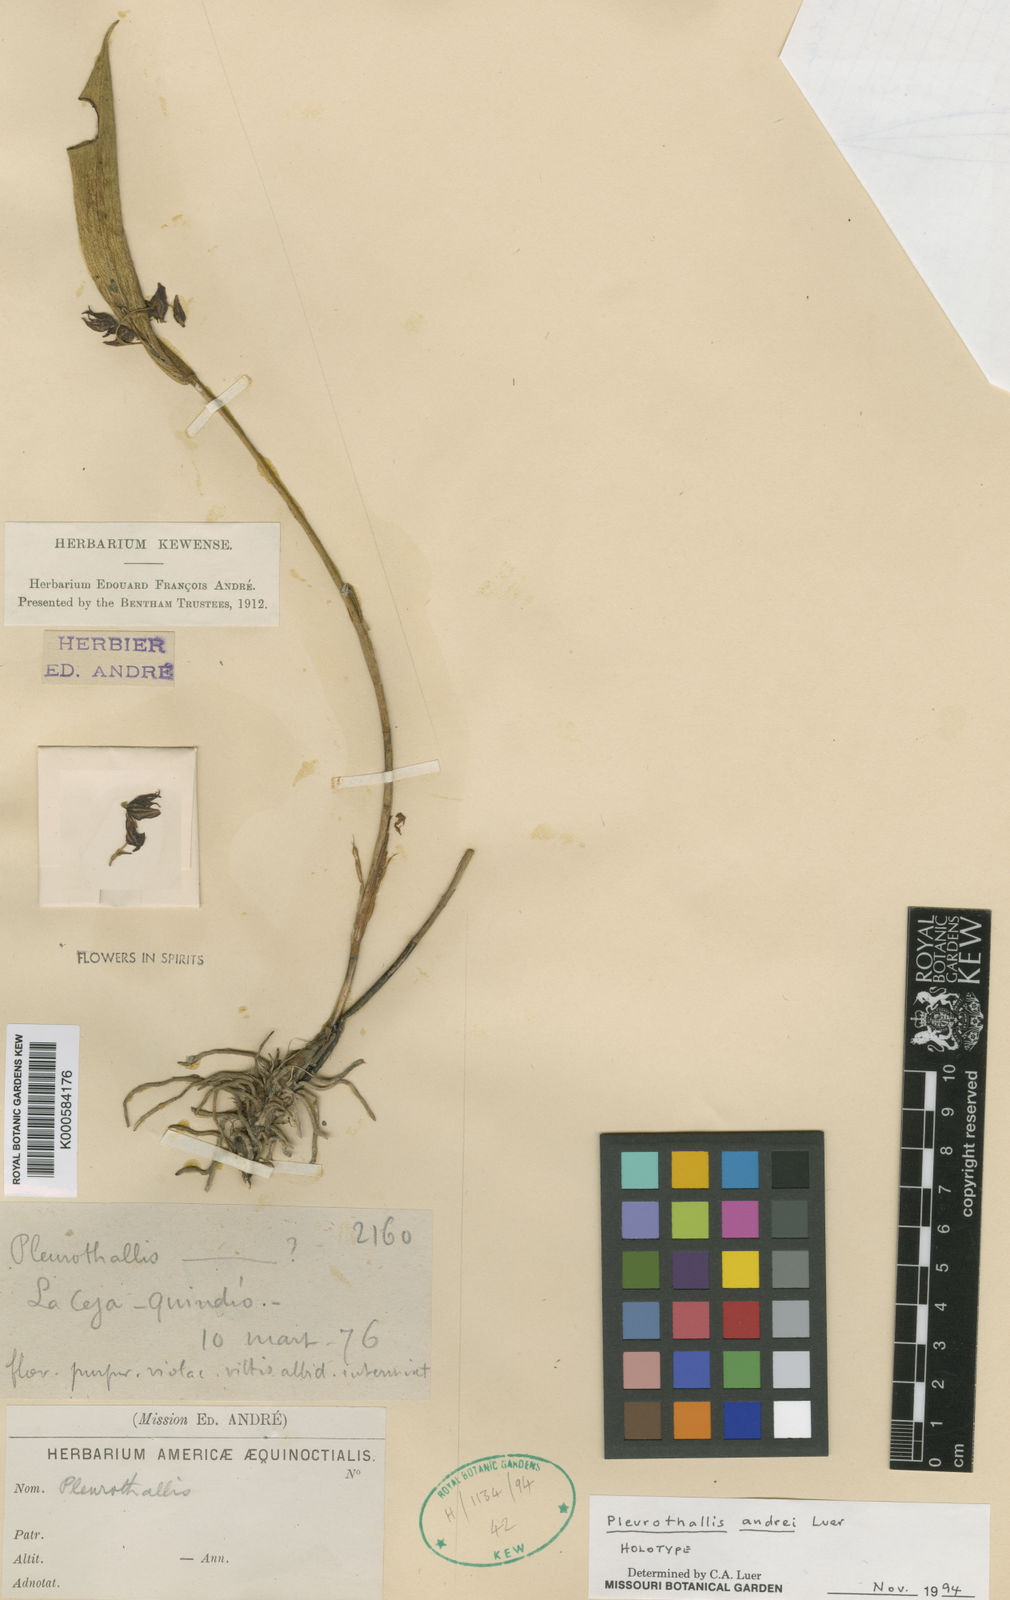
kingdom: Plantae
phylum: Tracheophyta
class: Liliopsida
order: Asparagales
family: Orchidaceae
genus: Pleurothallis
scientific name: Pleurothallis lindenii
